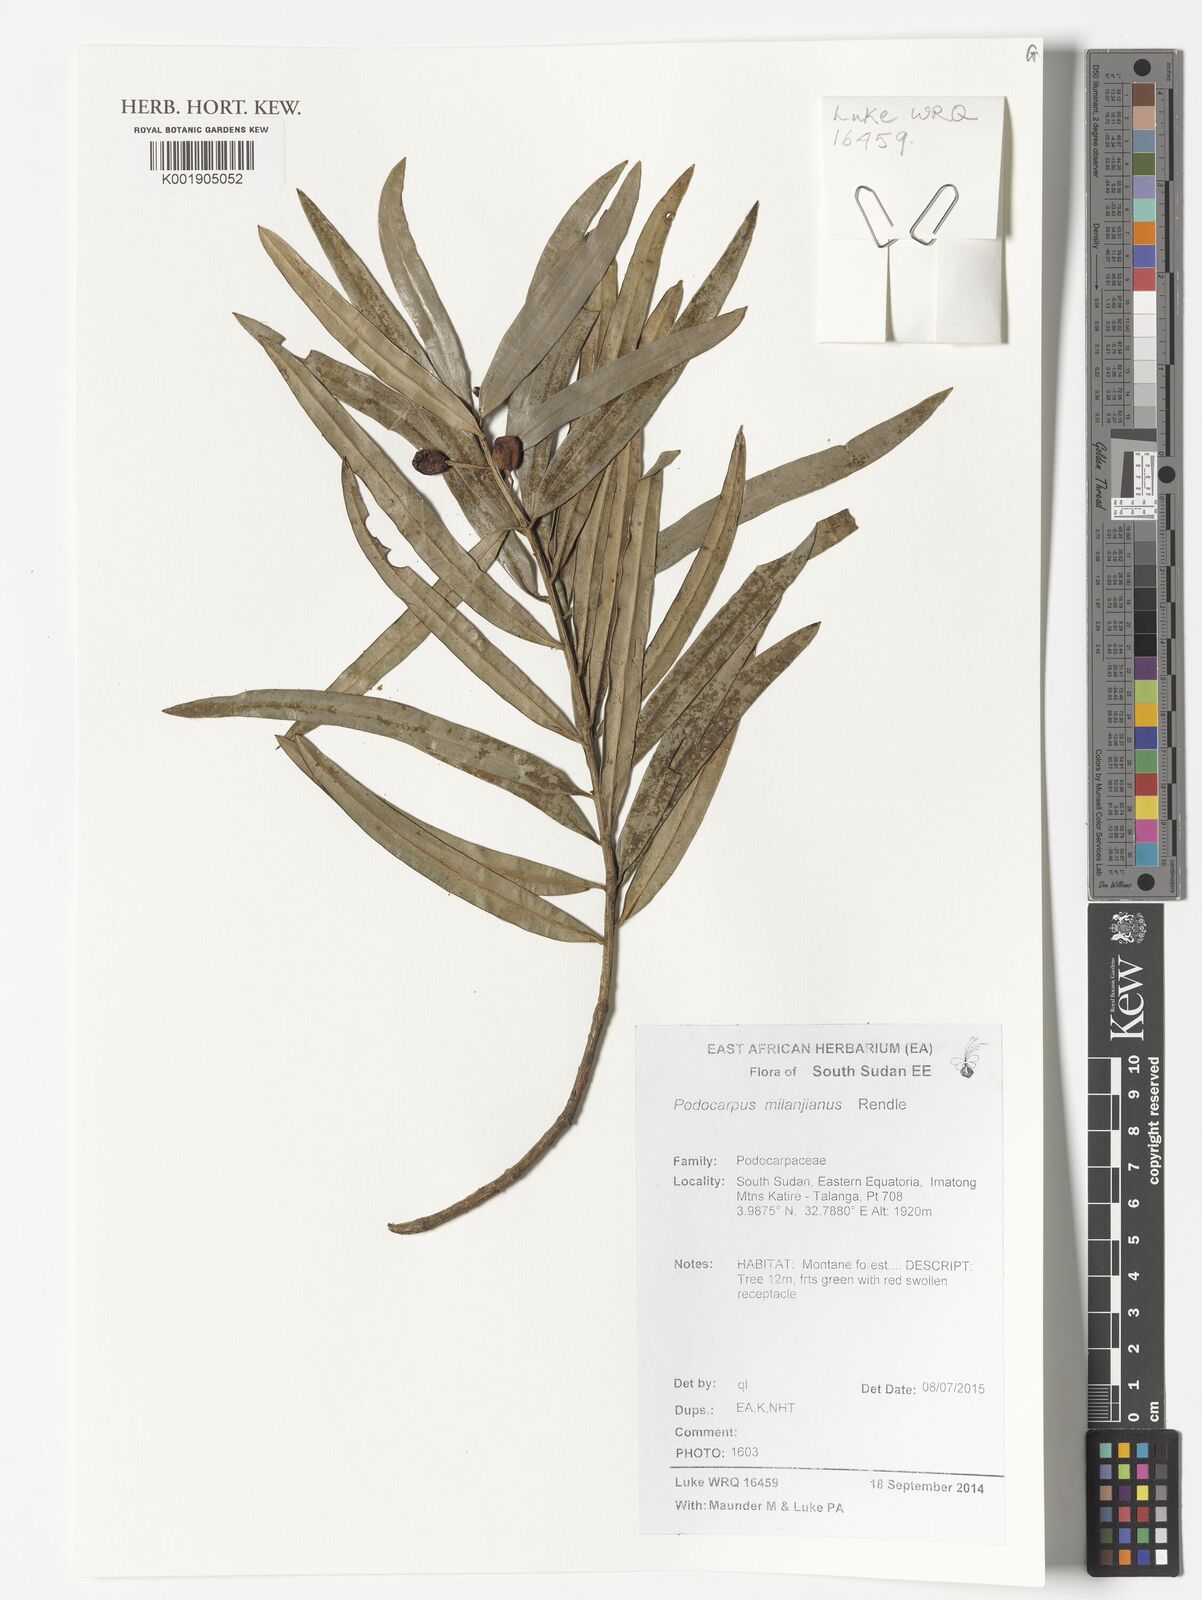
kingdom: Plantae
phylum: Tracheophyta
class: Pinopsida
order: Pinales
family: Podocarpaceae
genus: Podocarpus
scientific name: Podocarpus milanjianus
